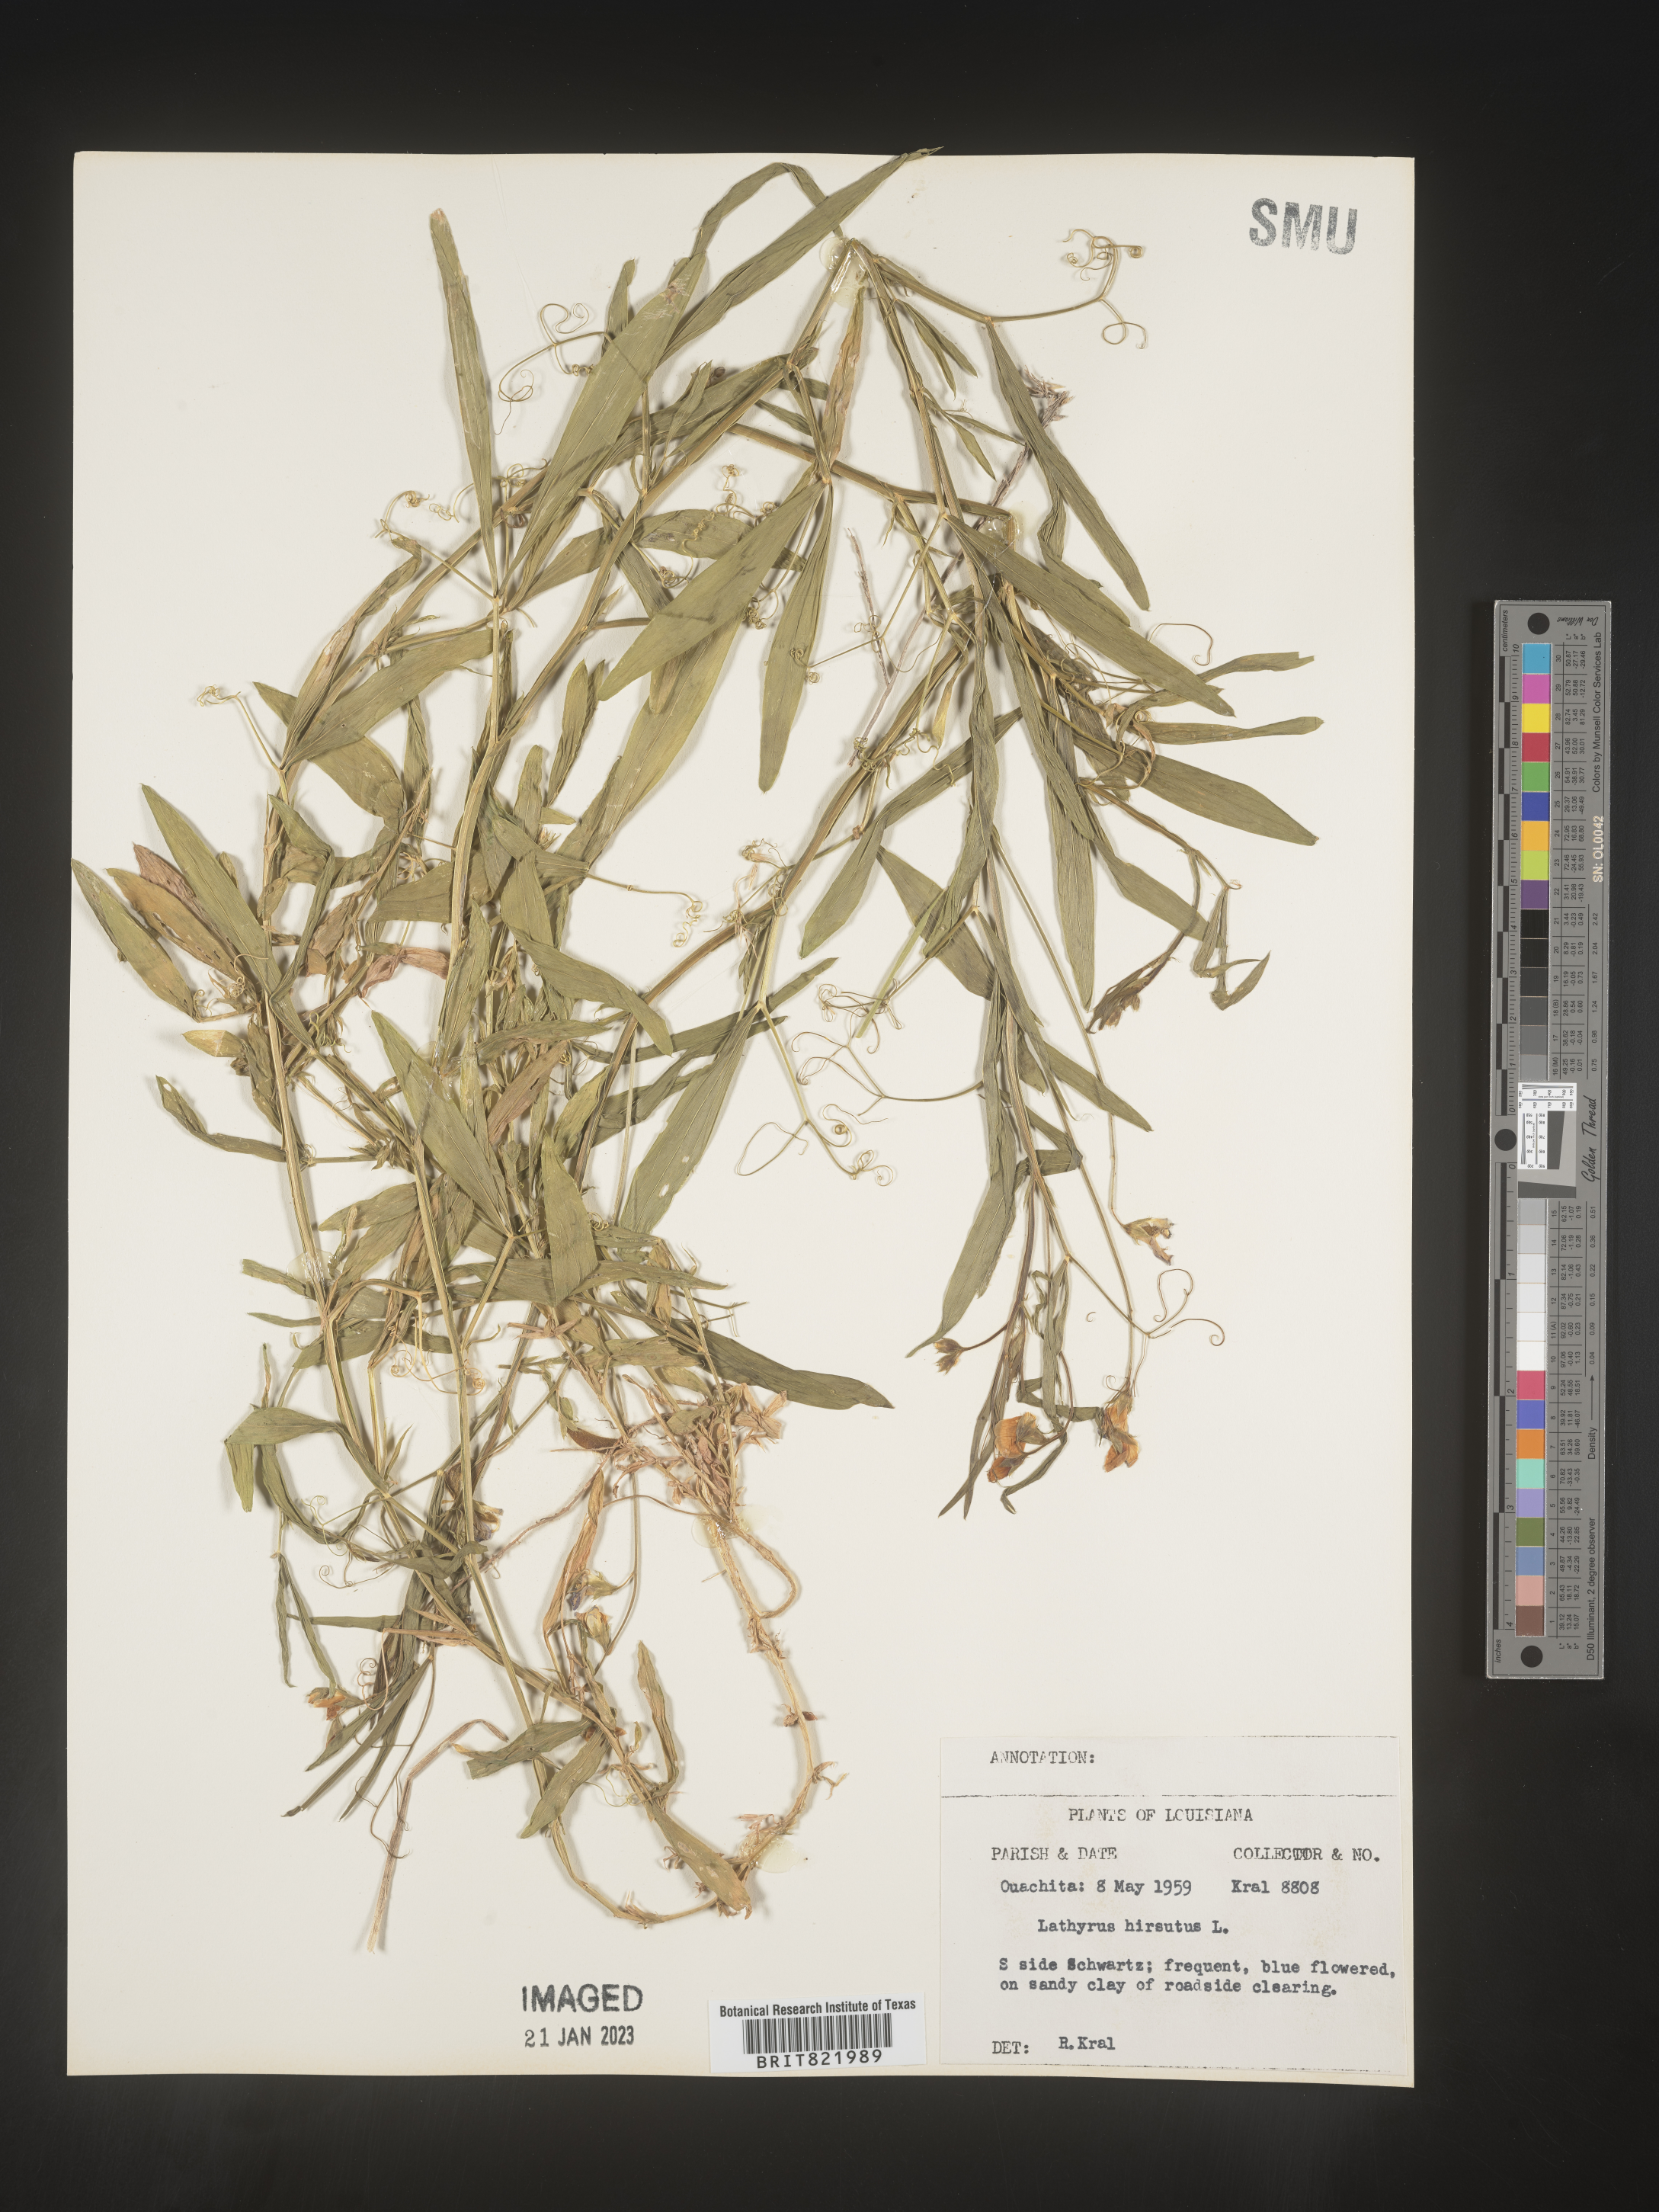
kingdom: Plantae
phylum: Tracheophyta
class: Magnoliopsida
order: Fabales
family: Fabaceae
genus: Lathyrus
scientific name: Lathyrus hirsutus
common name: Hairy vetchling
